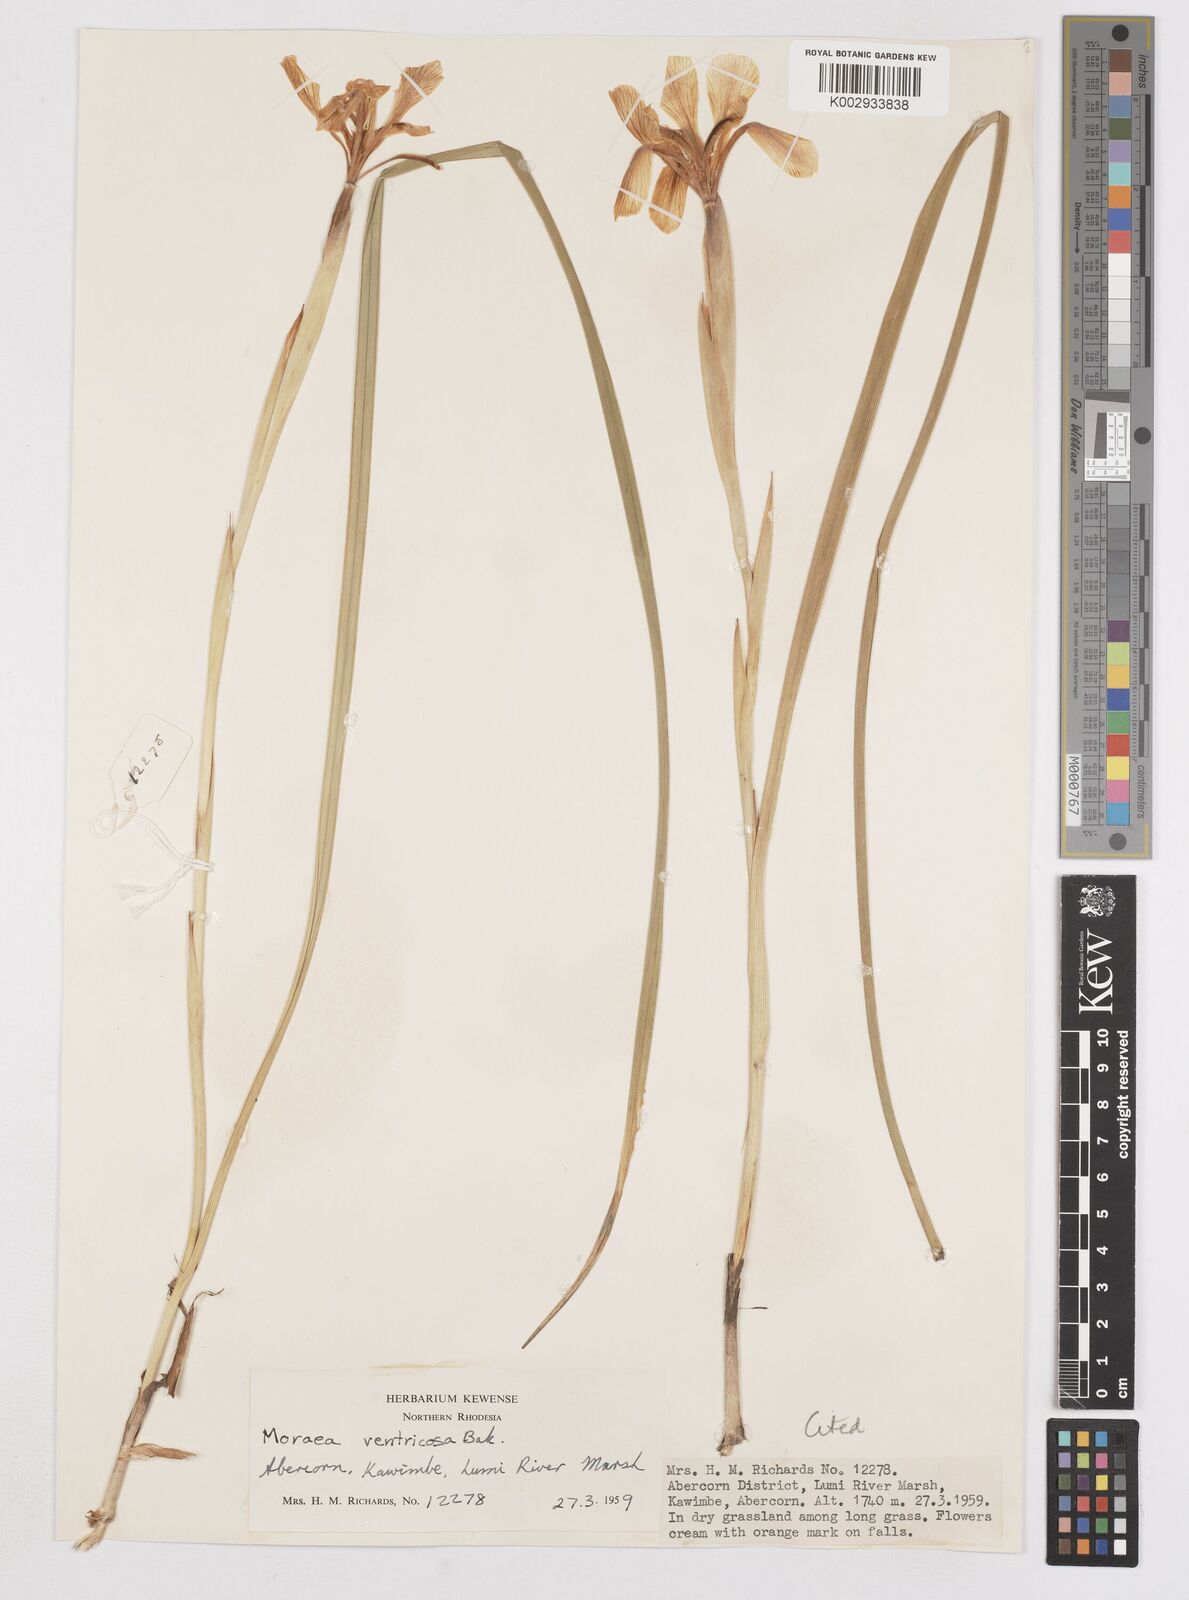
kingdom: Plantae
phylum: Tracheophyta
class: Liliopsida
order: Asparagales
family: Iridaceae
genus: Moraea
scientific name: Moraea ventricosa
